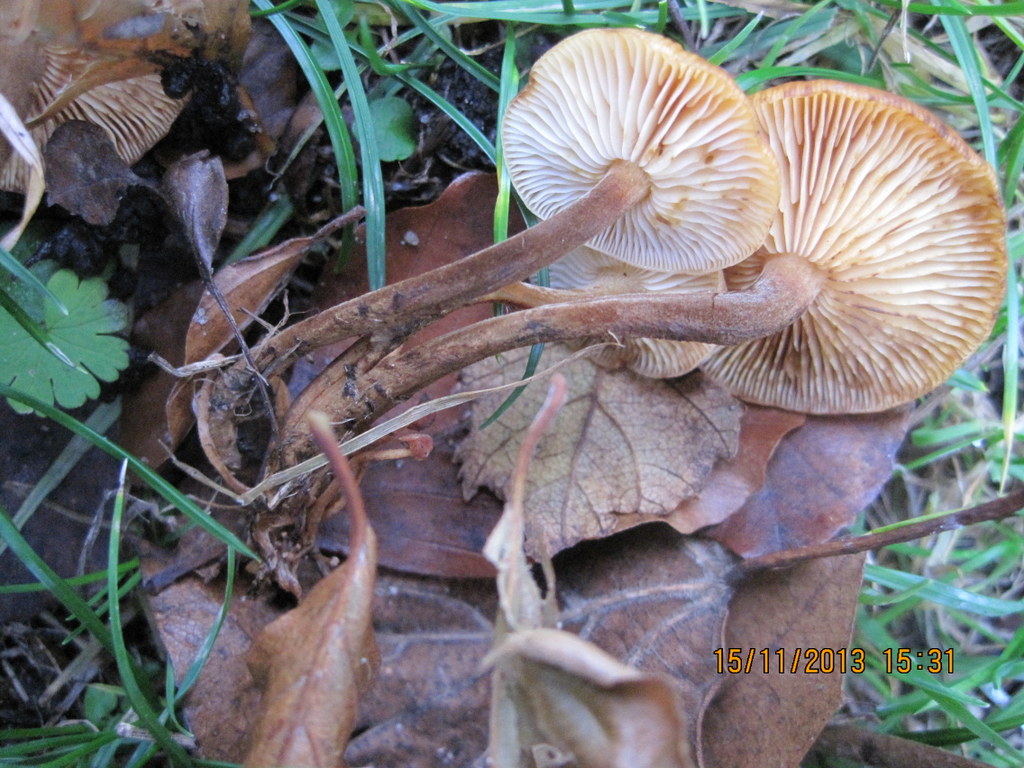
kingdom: Fungi
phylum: Basidiomycota
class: Agaricomycetes
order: Agaricales
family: Physalacriaceae
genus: Flammulina
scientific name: Flammulina velutipes
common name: gul fløjlsfod
